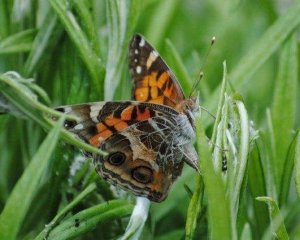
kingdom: Animalia
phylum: Arthropoda
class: Insecta
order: Lepidoptera
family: Nymphalidae
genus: Vanessa
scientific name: Vanessa virginiensis
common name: American Lady
